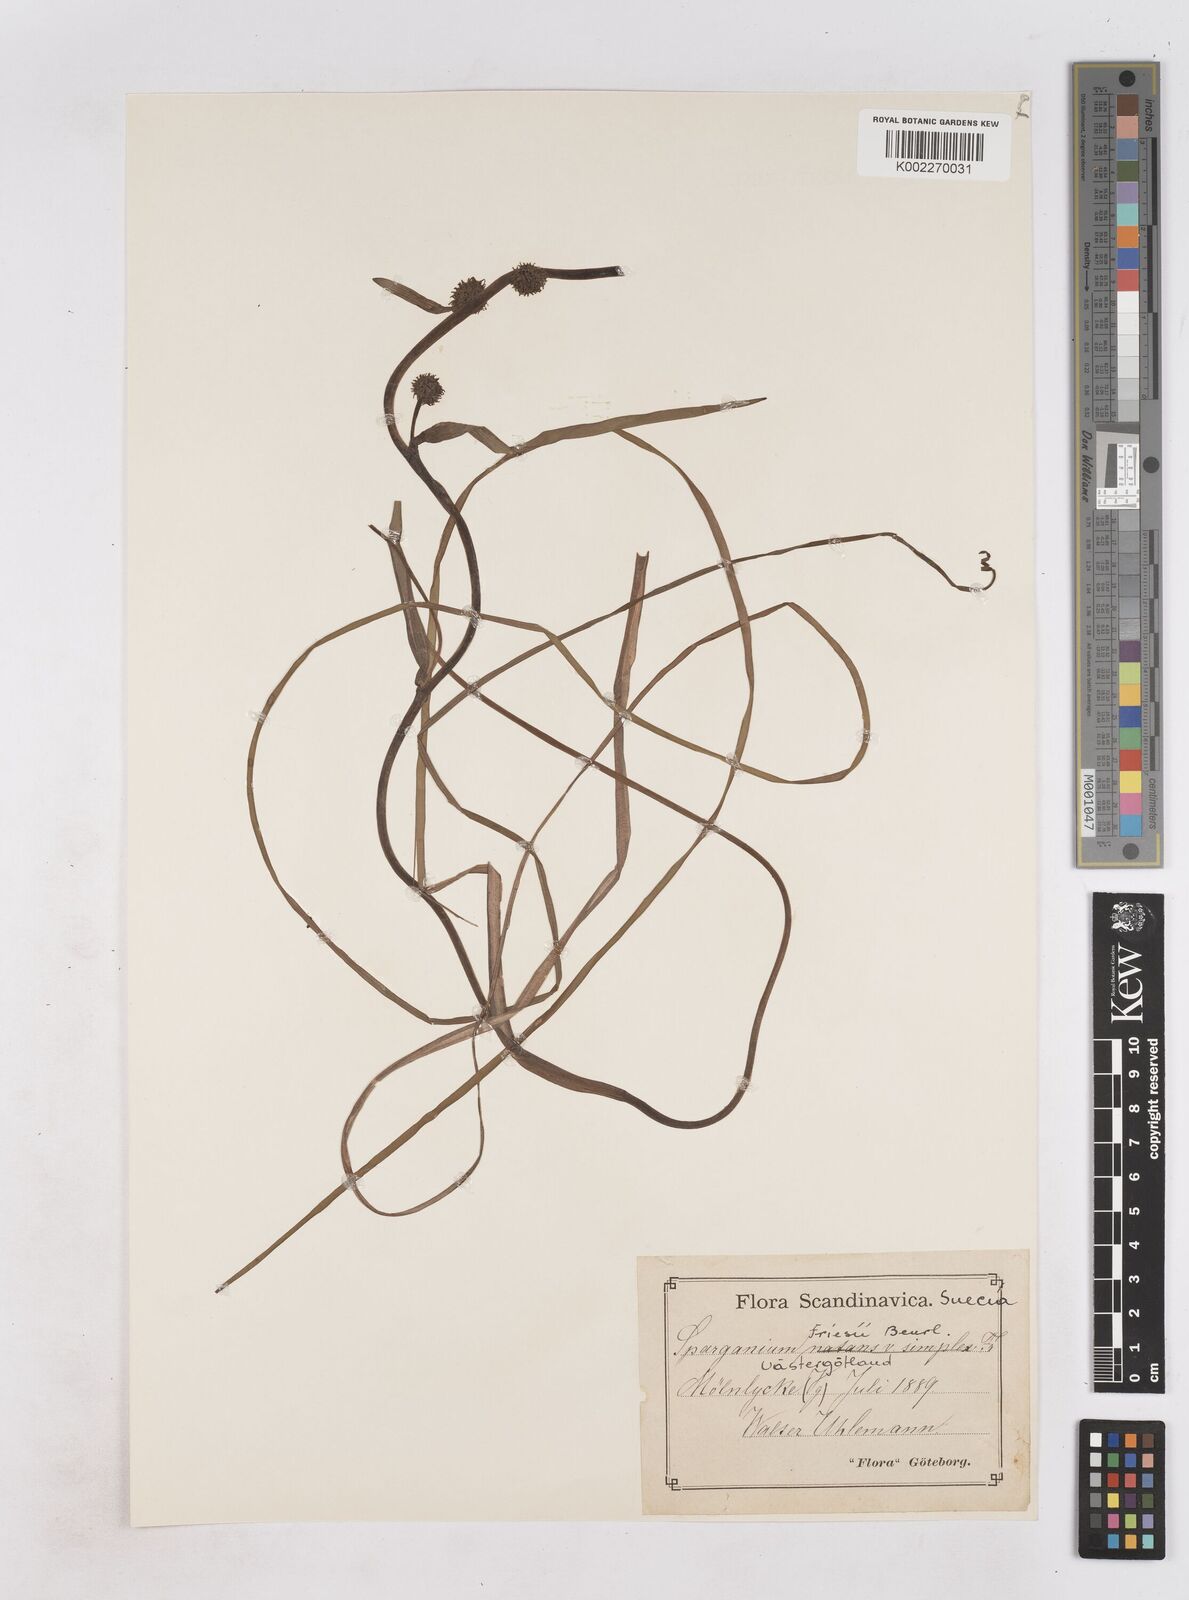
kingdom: Plantae
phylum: Tracheophyta
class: Liliopsida
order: Poales
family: Typhaceae
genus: Sparganium
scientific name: Sparganium gramineum
